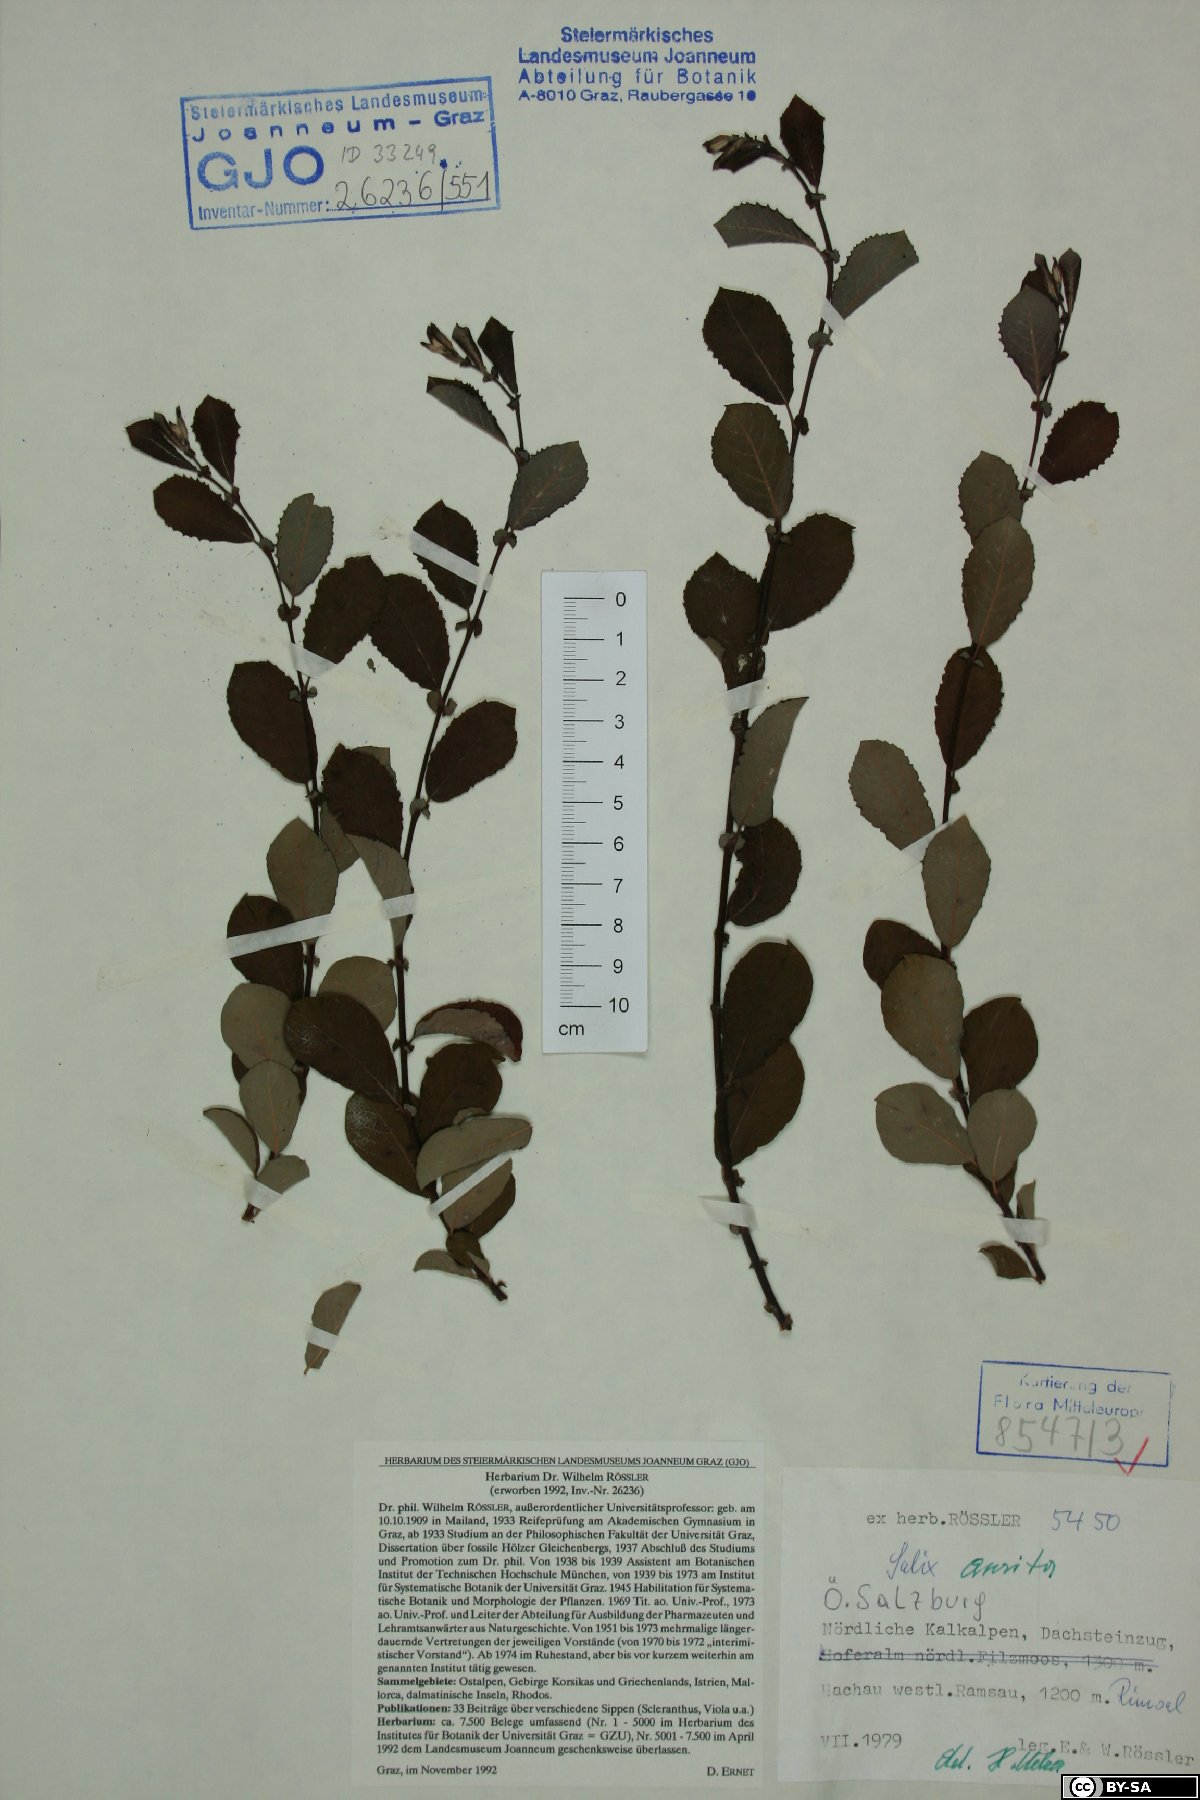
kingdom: Plantae
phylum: Tracheophyta
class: Magnoliopsida
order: Malpighiales
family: Salicaceae
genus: Salix
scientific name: Salix aurita
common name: Eared willow
